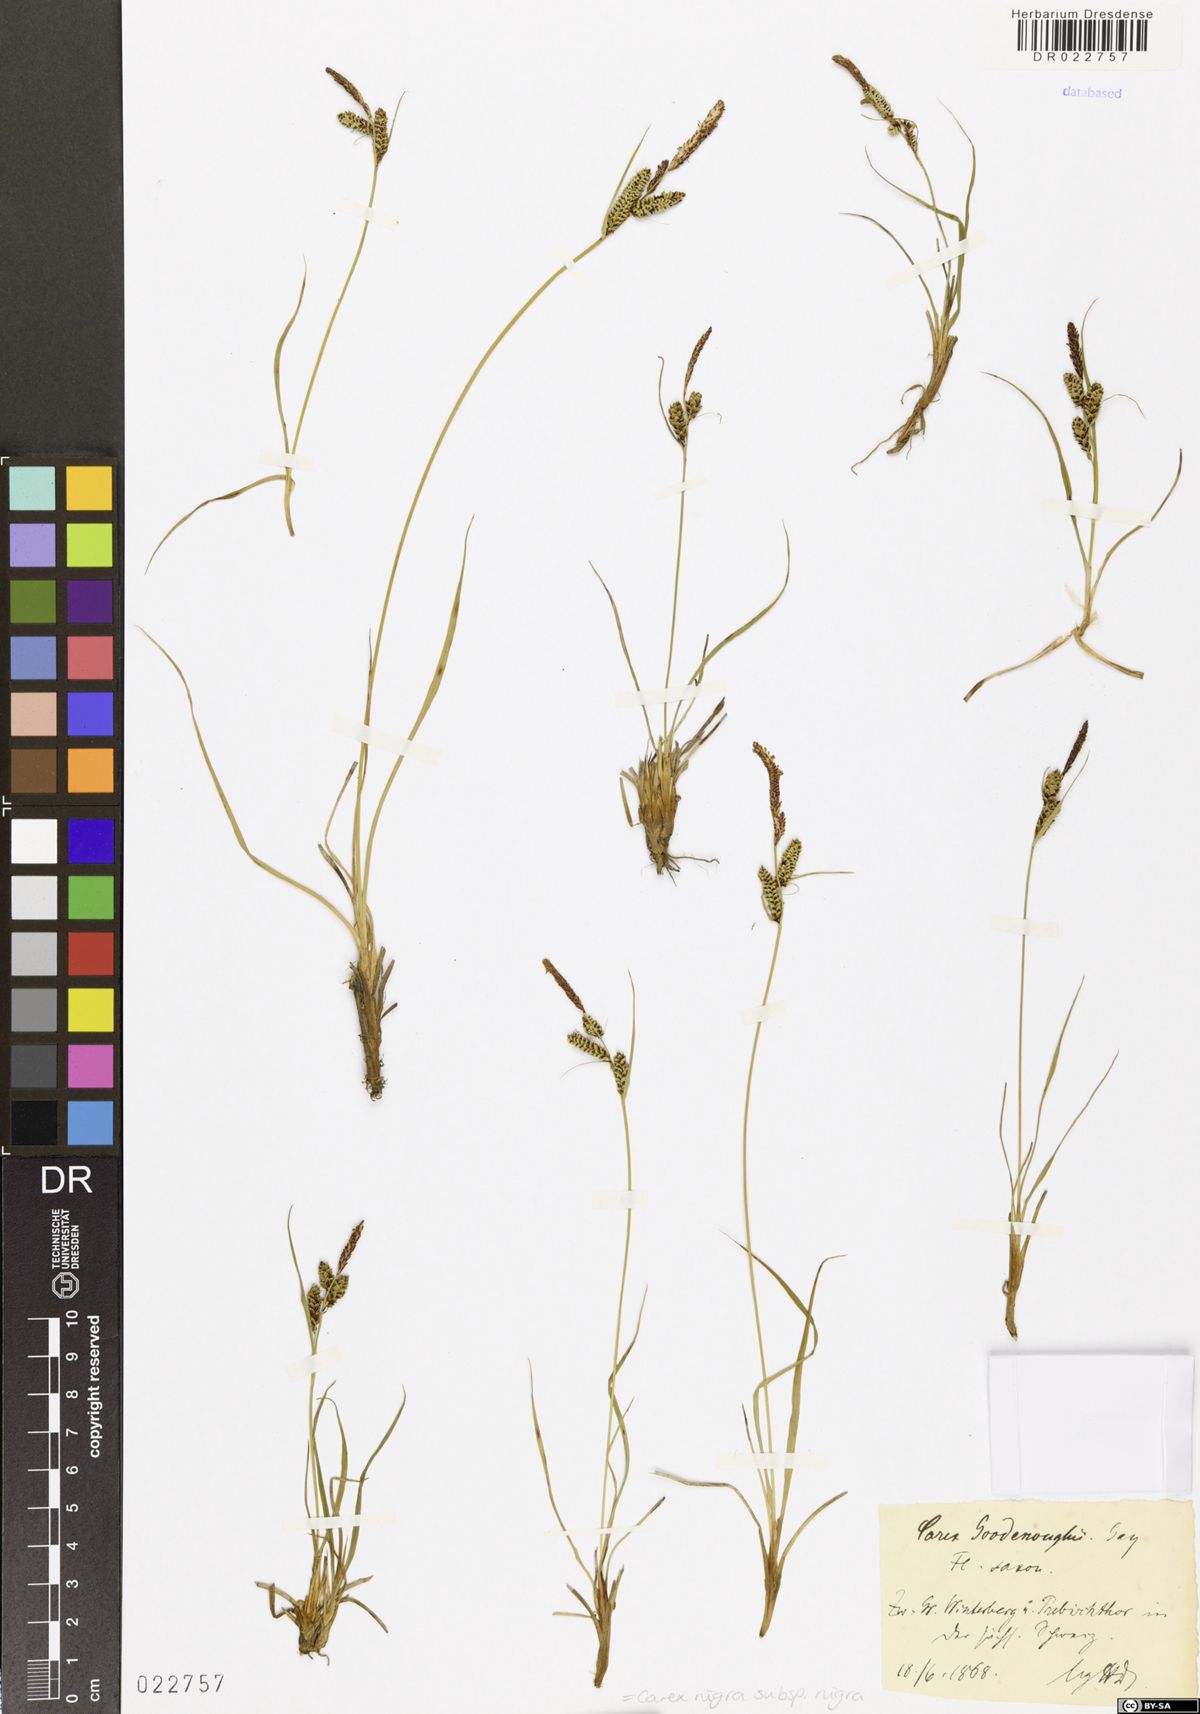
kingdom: Plantae
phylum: Tracheophyta
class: Liliopsida
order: Poales
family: Cyperaceae
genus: Carex
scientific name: Carex nigra
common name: Common sedge
